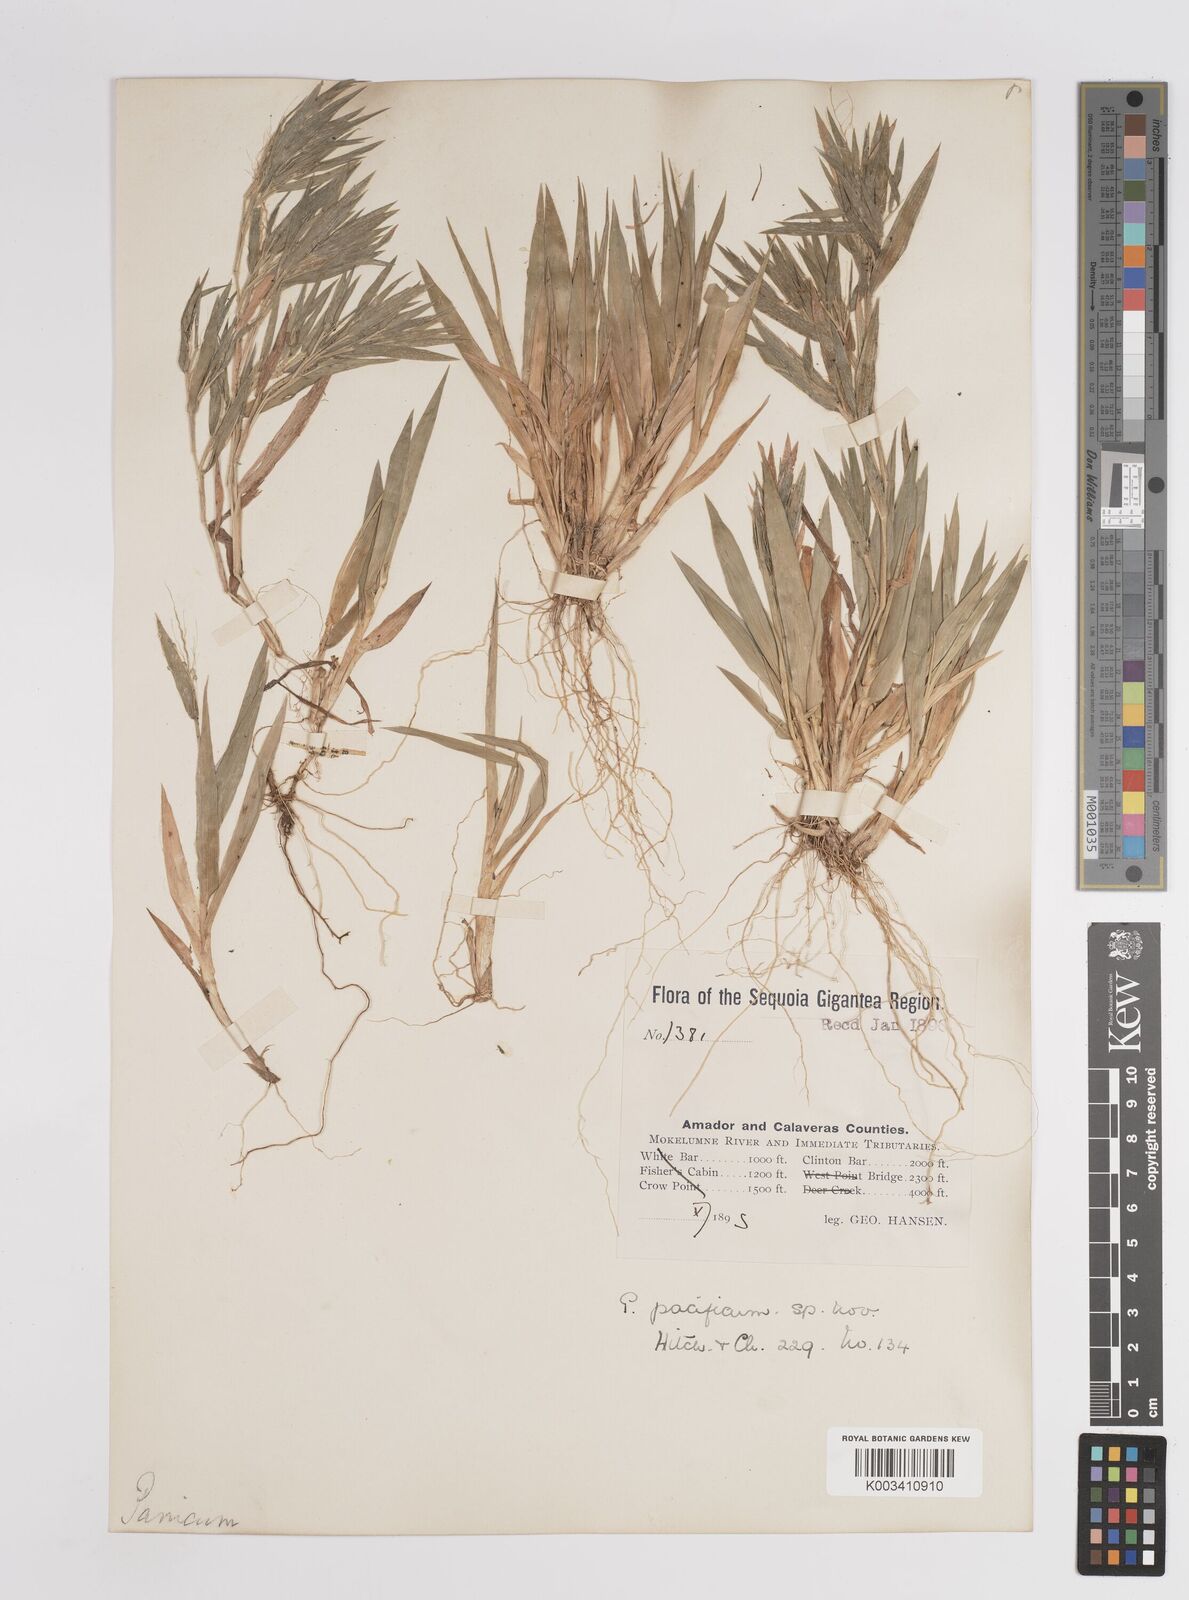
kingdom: Plantae
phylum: Tracheophyta
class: Liliopsida
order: Poales
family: Poaceae
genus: Dichanthelium
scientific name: Dichanthelium implicatum
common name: Slender-stemmed panicgrass
